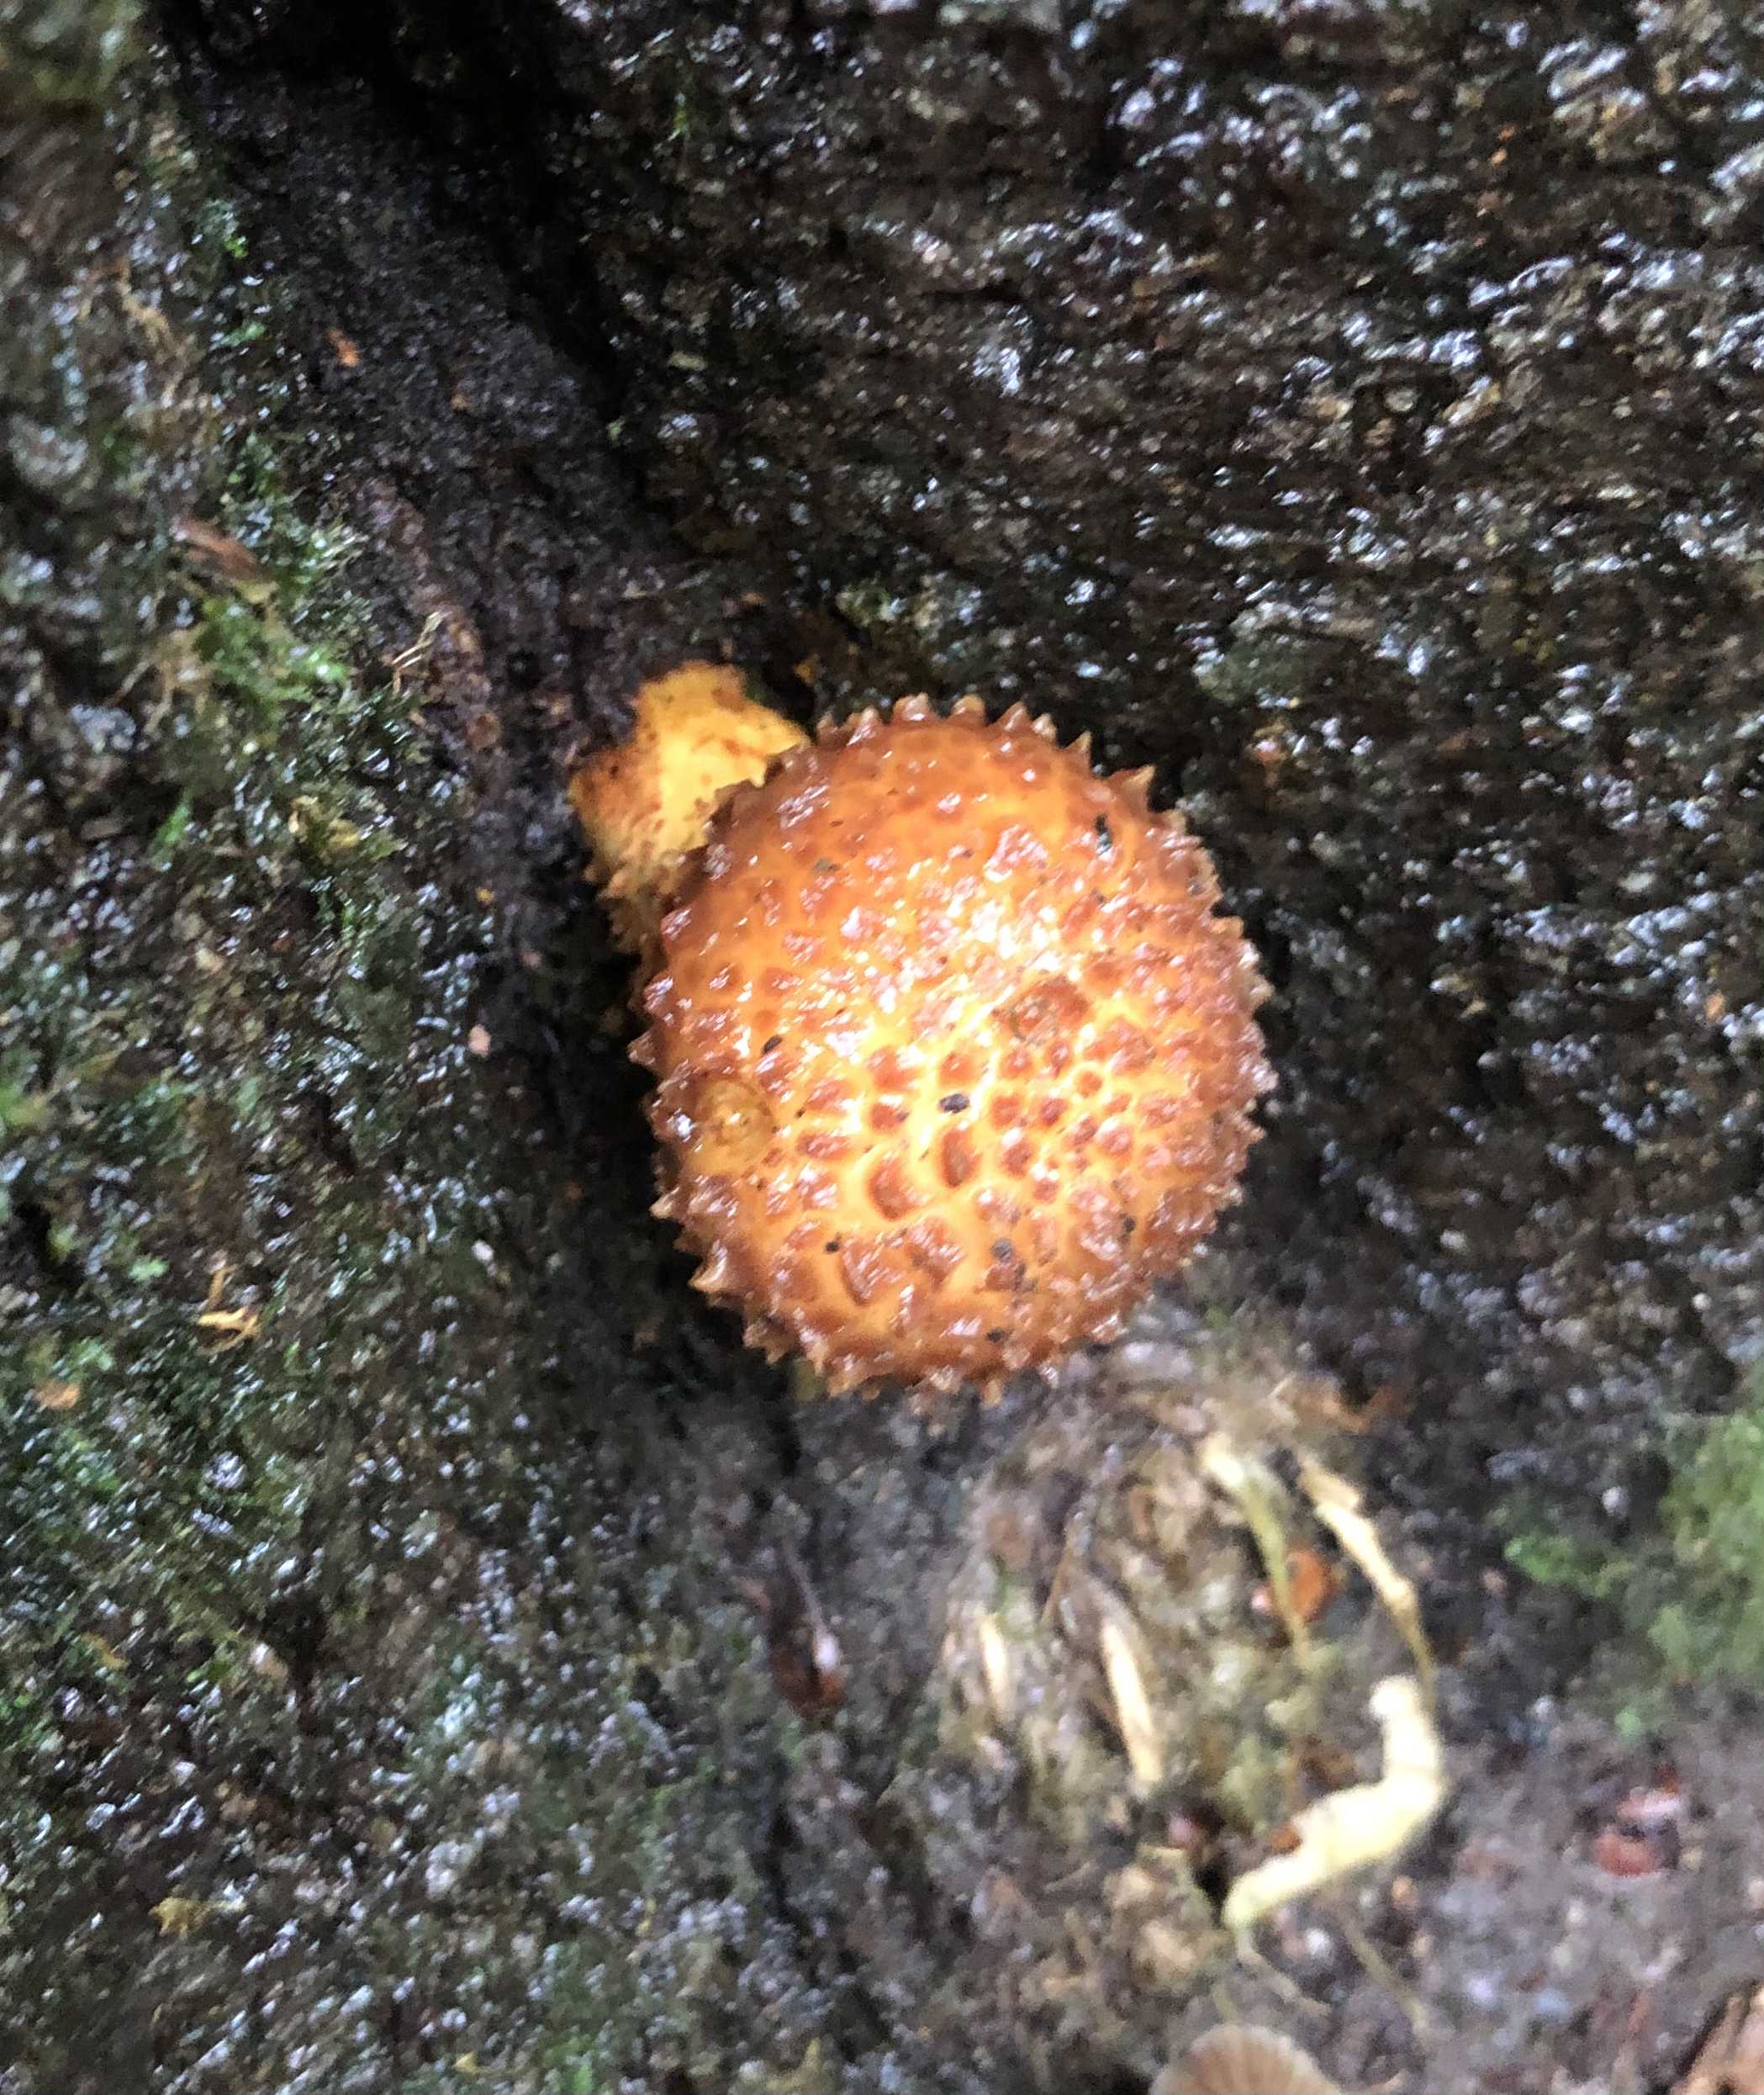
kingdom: Fungi
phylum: Basidiomycota
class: Agaricomycetes
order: Agaricales
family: Strophariaceae
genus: Pholiota
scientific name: Pholiota
